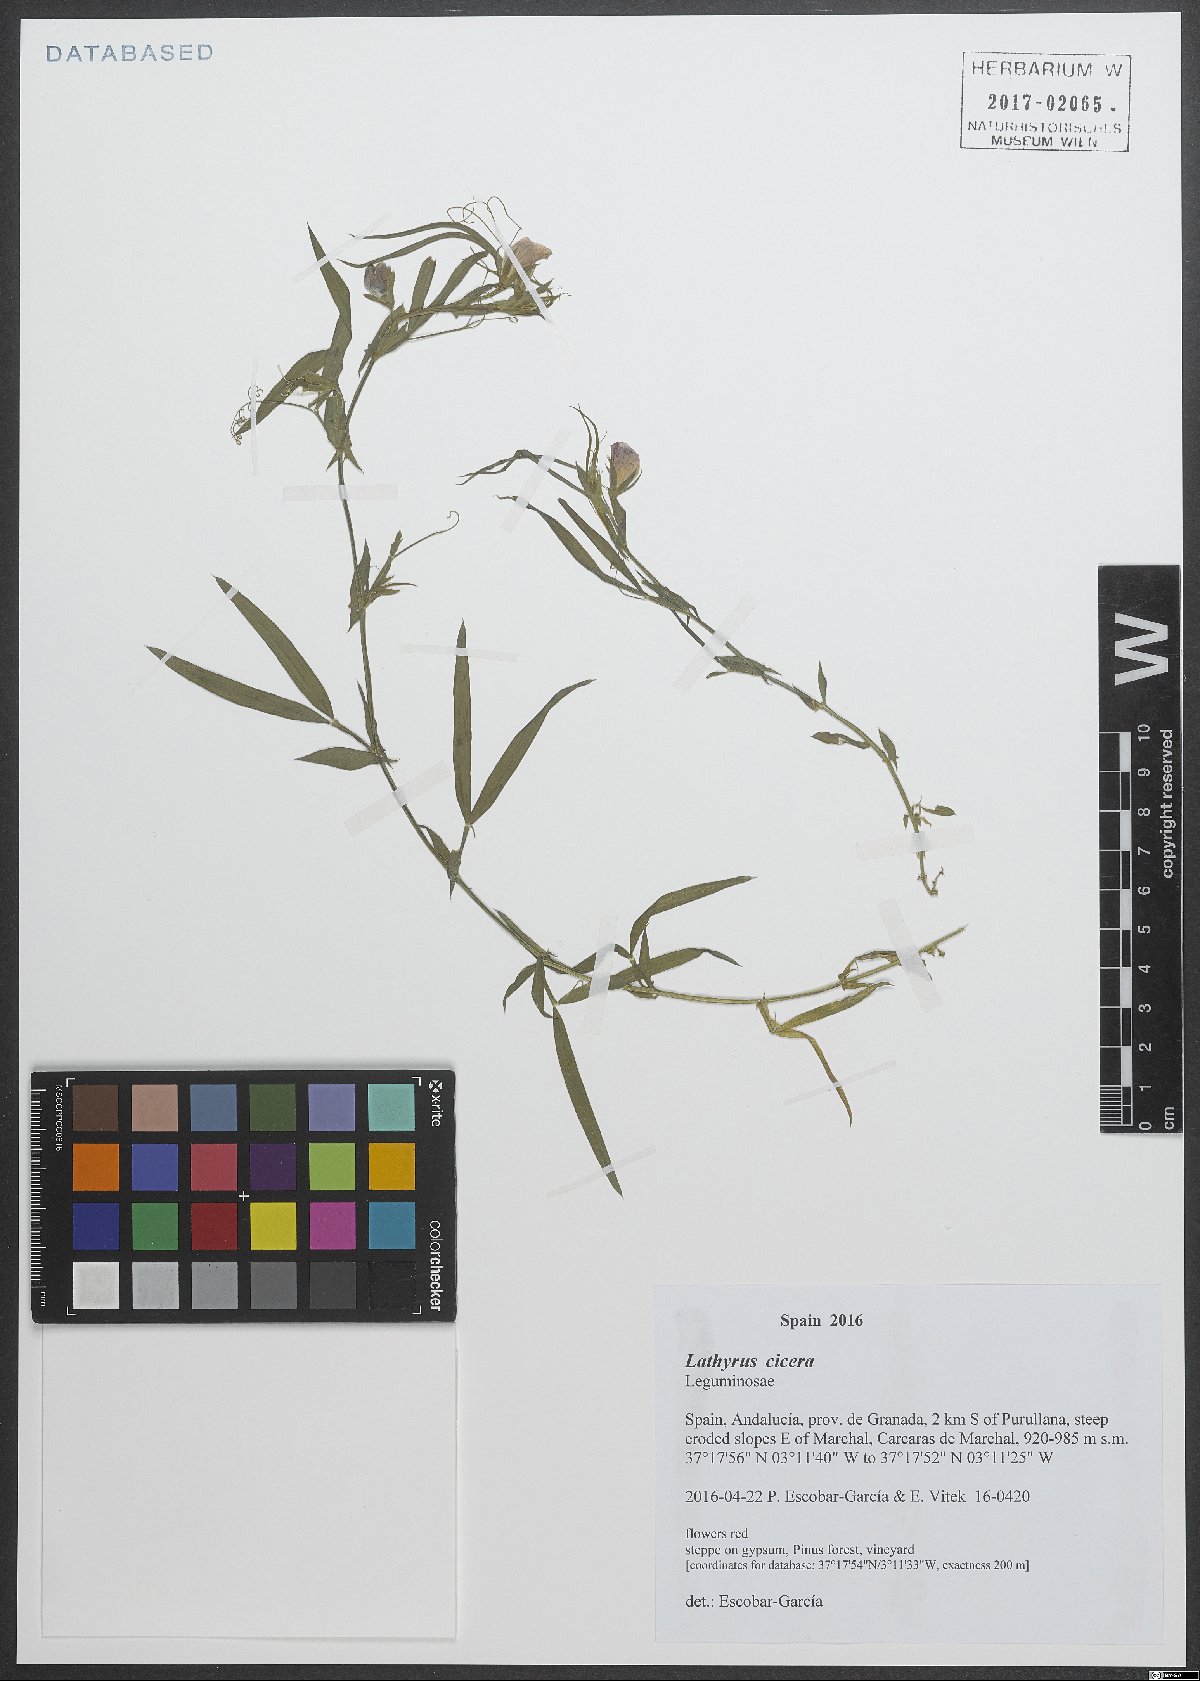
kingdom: Plantae
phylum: Tracheophyta
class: Magnoliopsida
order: Fabales
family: Fabaceae
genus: Lathyrus
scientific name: Lathyrus cicera
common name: Red vetchling
